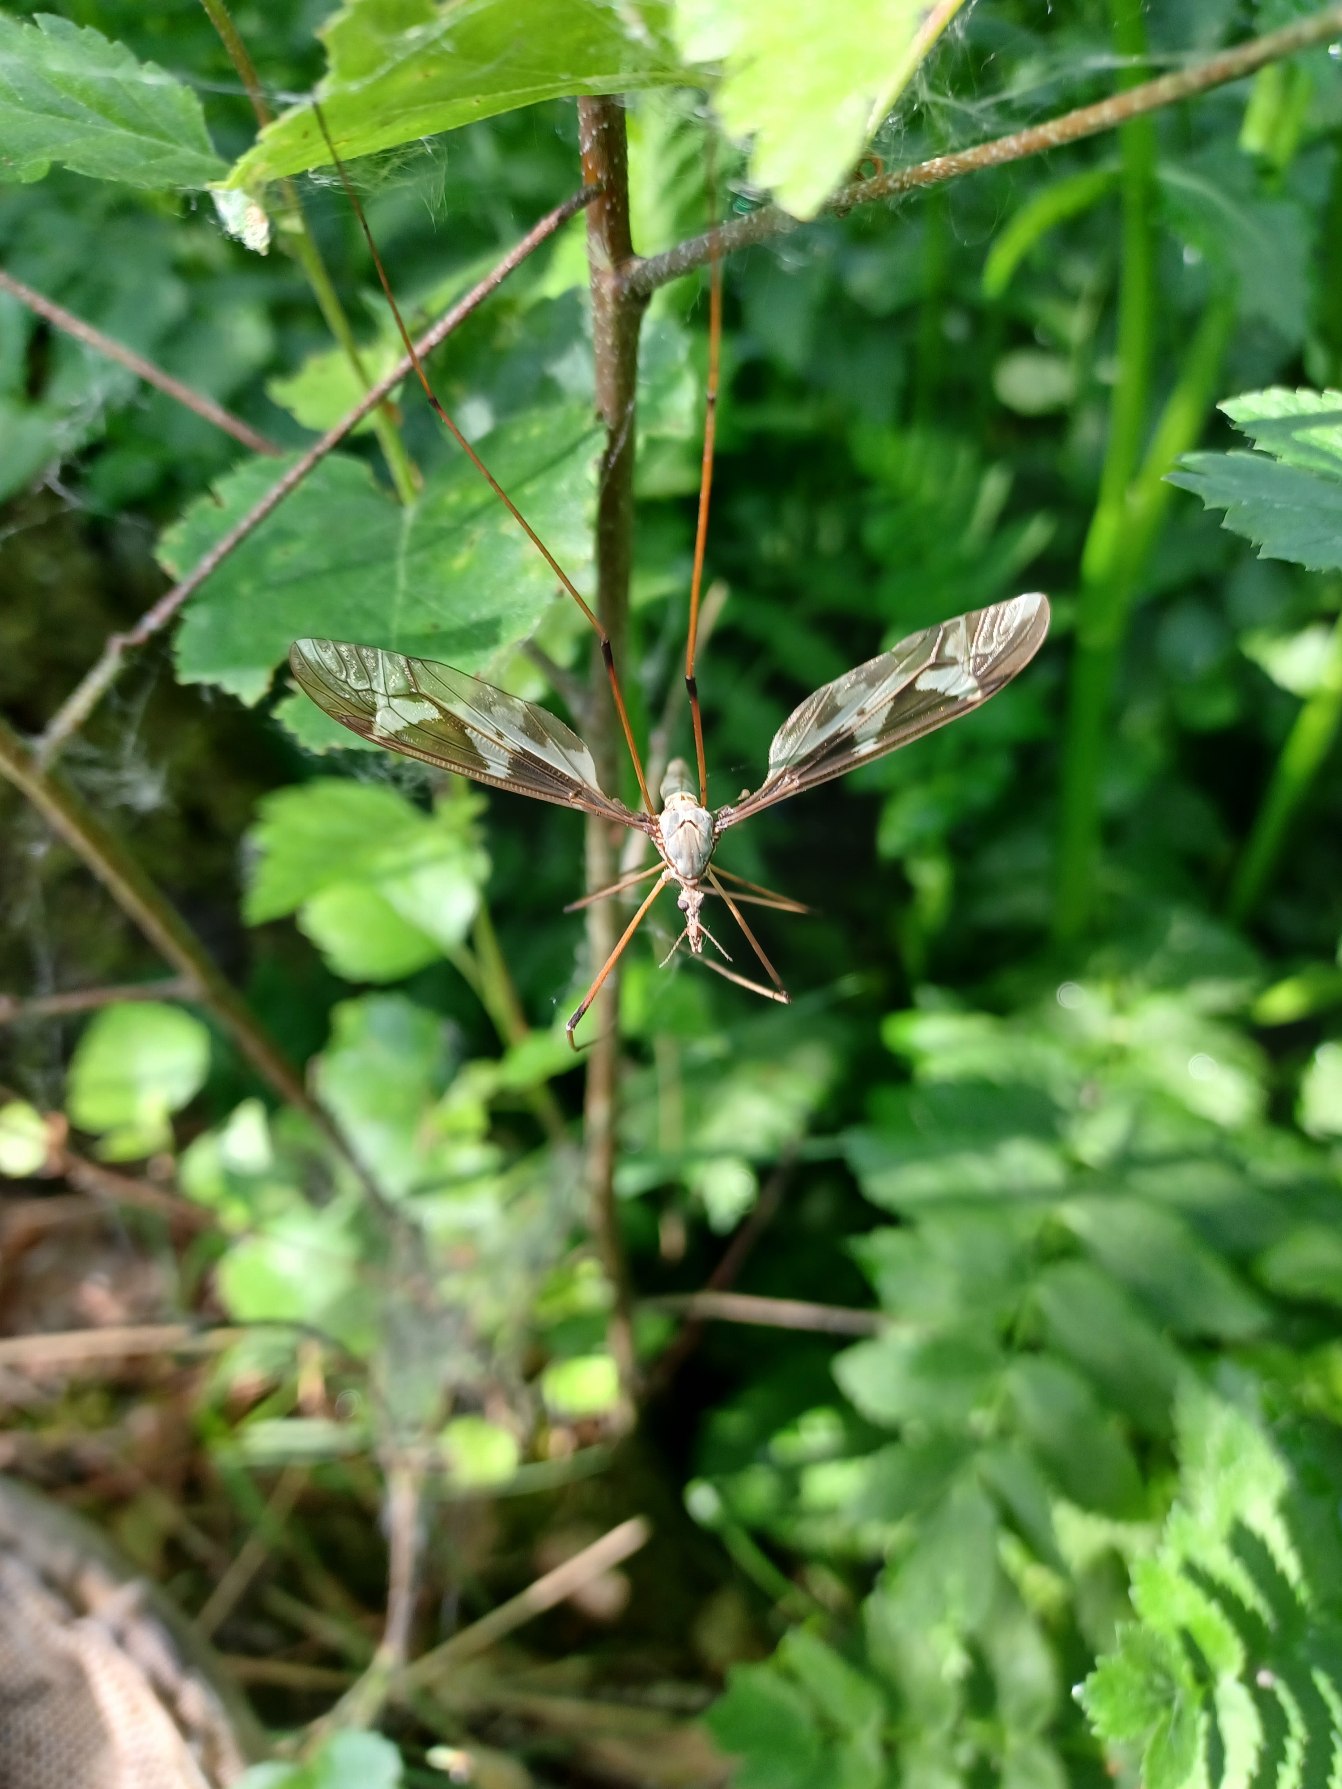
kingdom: Animalia
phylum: Arthropoda
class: Insecta
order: Diptera
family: Tipulidae
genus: Tipula
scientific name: Tipula maxima
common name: Kæmpestankelben
